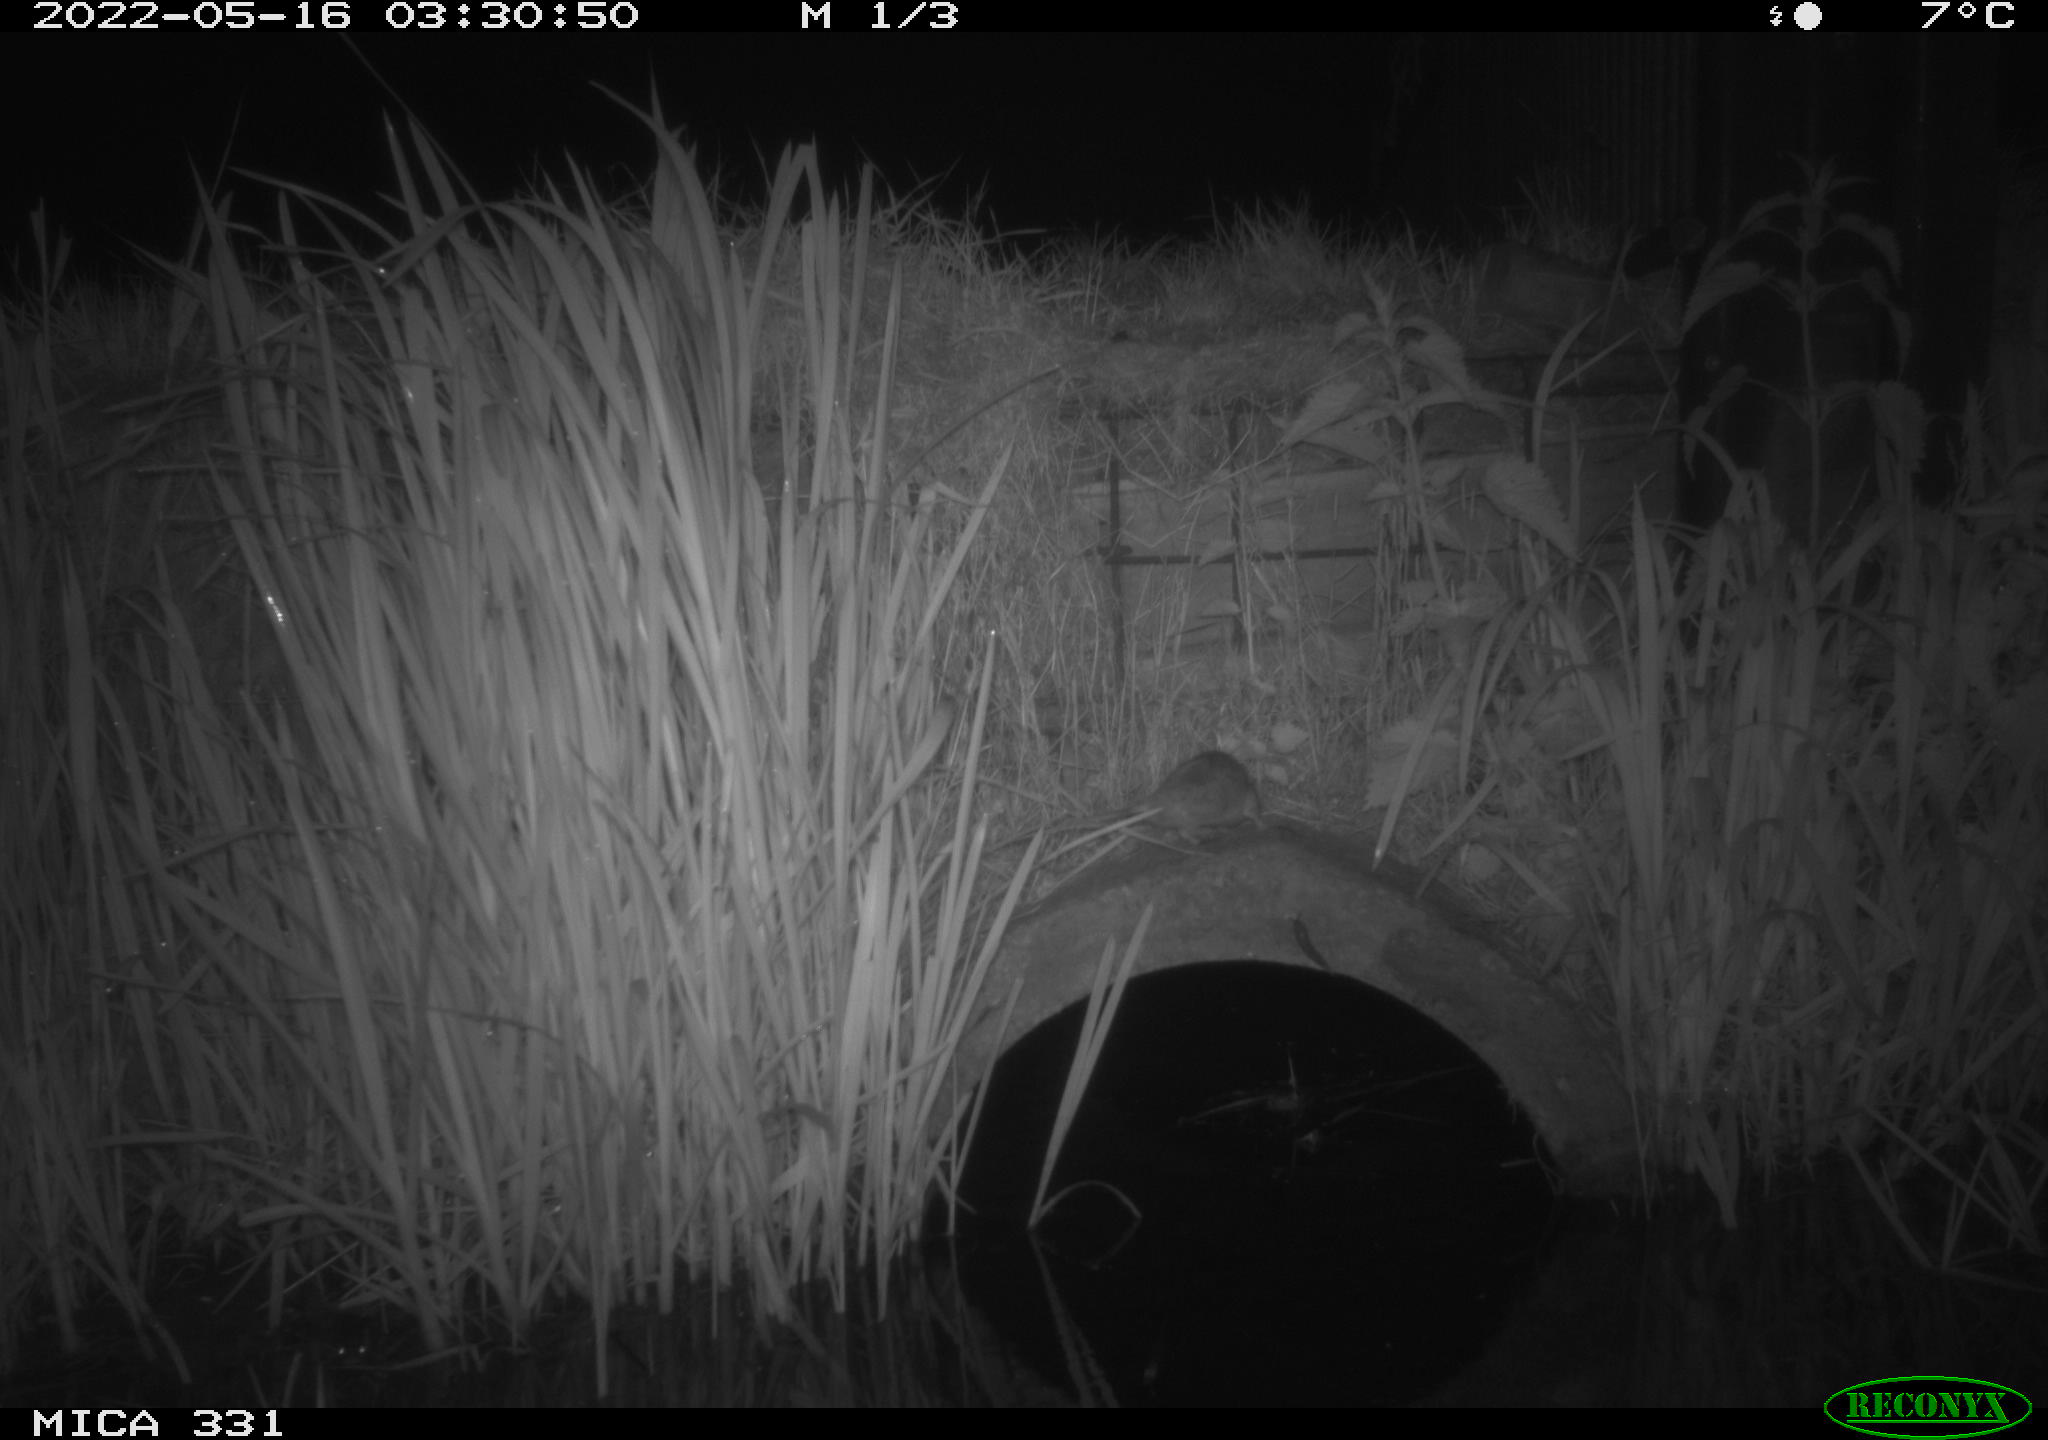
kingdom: Animalia
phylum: Chordata
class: Mammalia
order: Rodentia
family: Muridae
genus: Rattus
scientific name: Rattus norvegicus
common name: Brown rat
